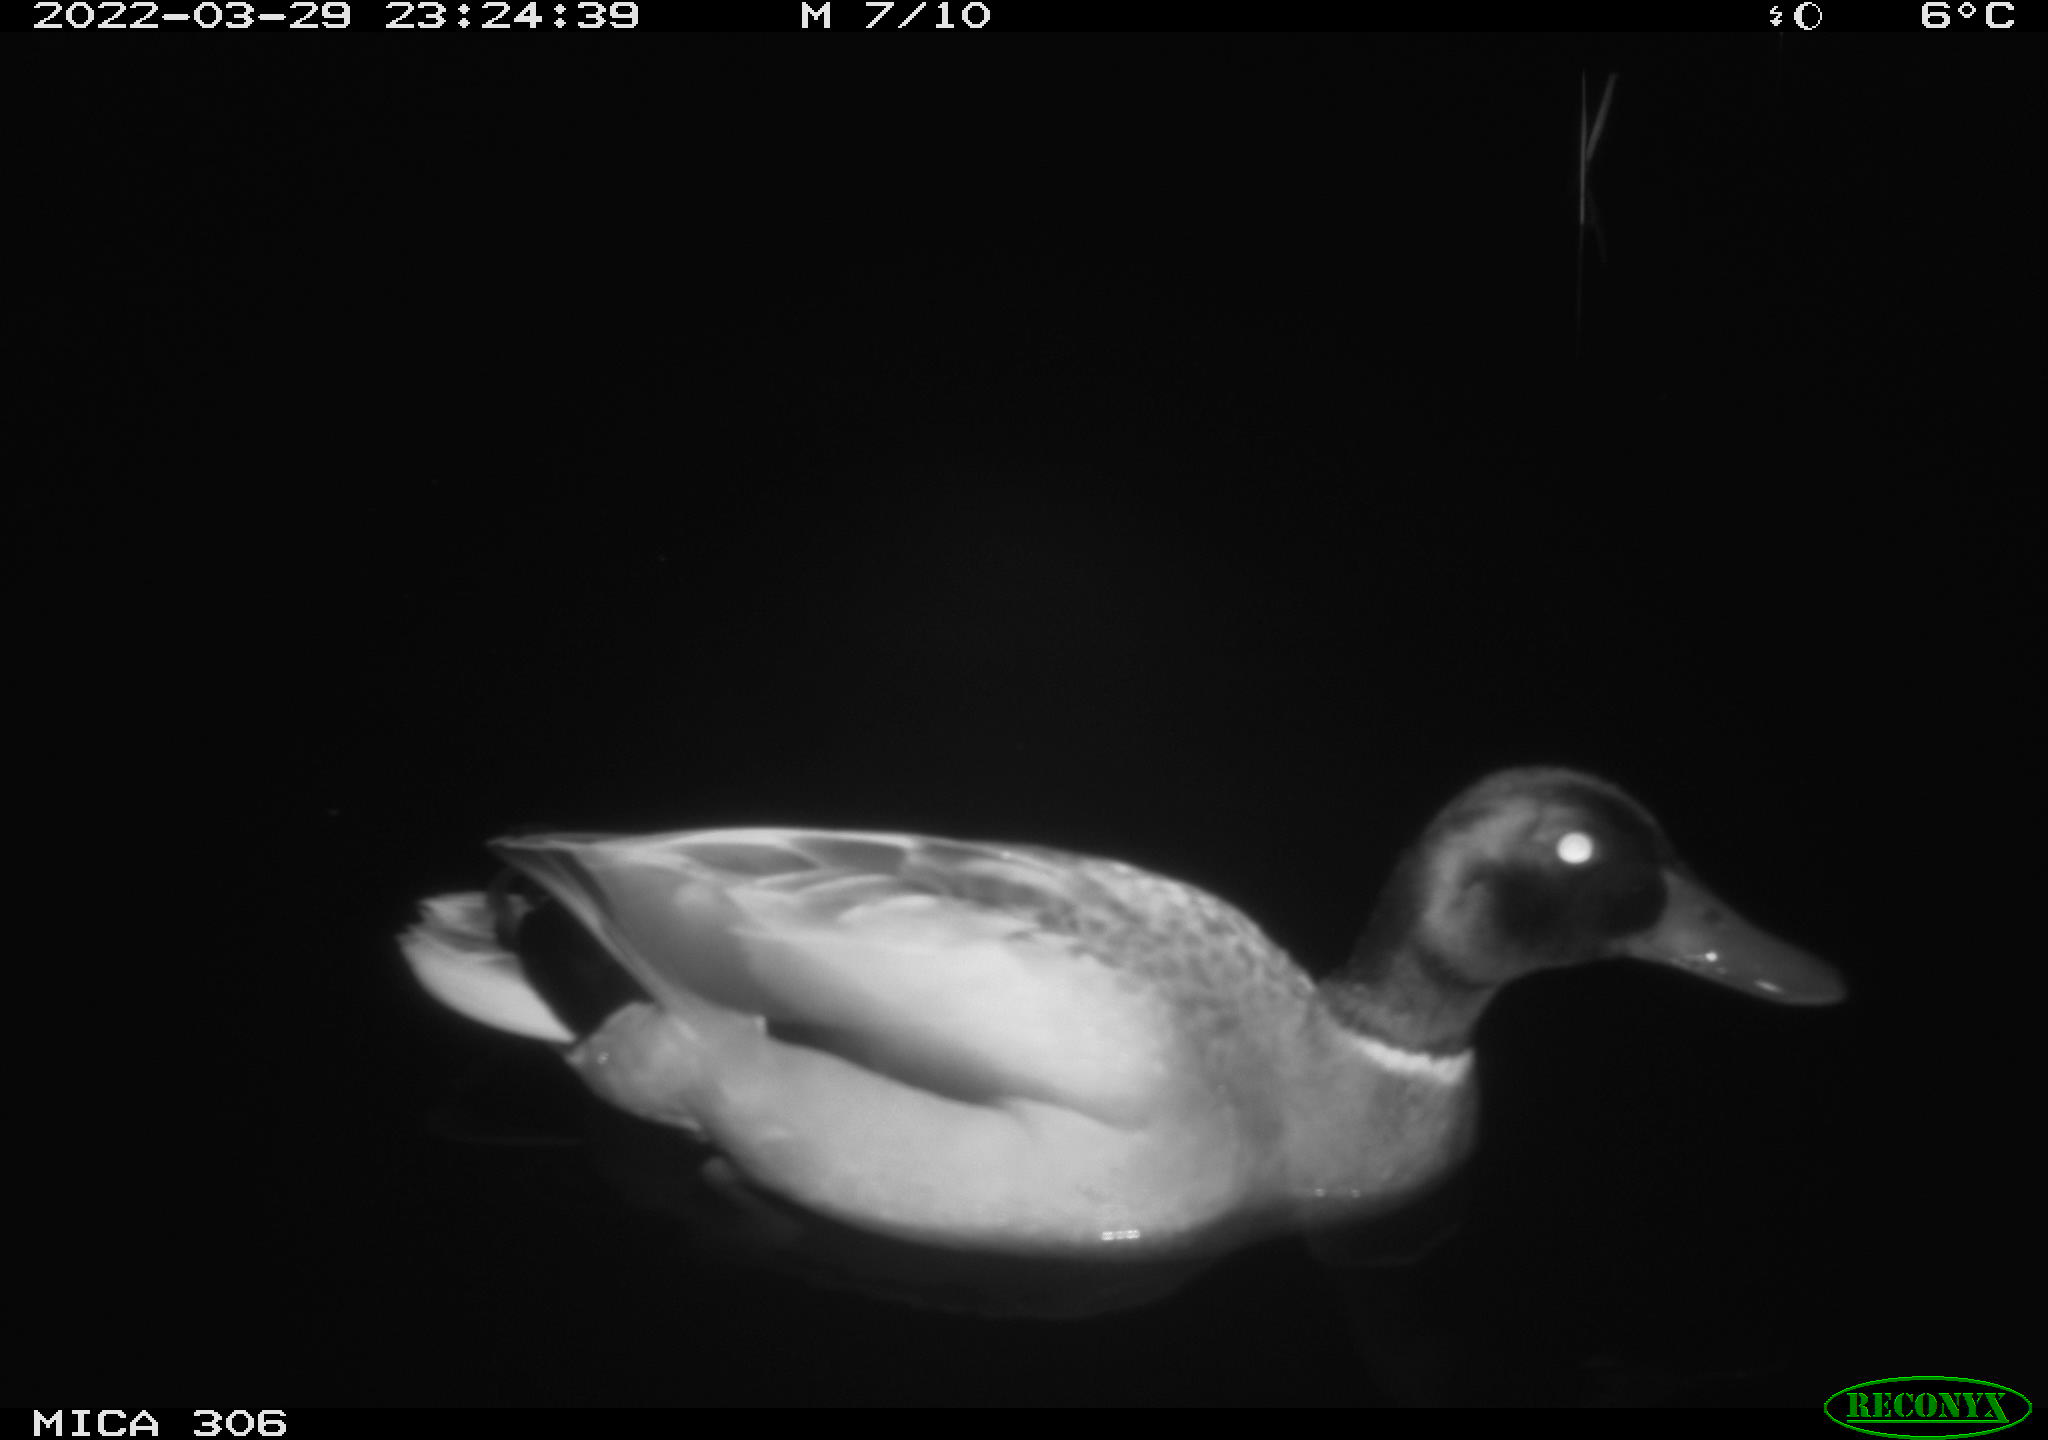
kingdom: Animalia
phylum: Chordata
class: Aves
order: Anseriformes
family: Anatidae
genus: Anas
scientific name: Anas
